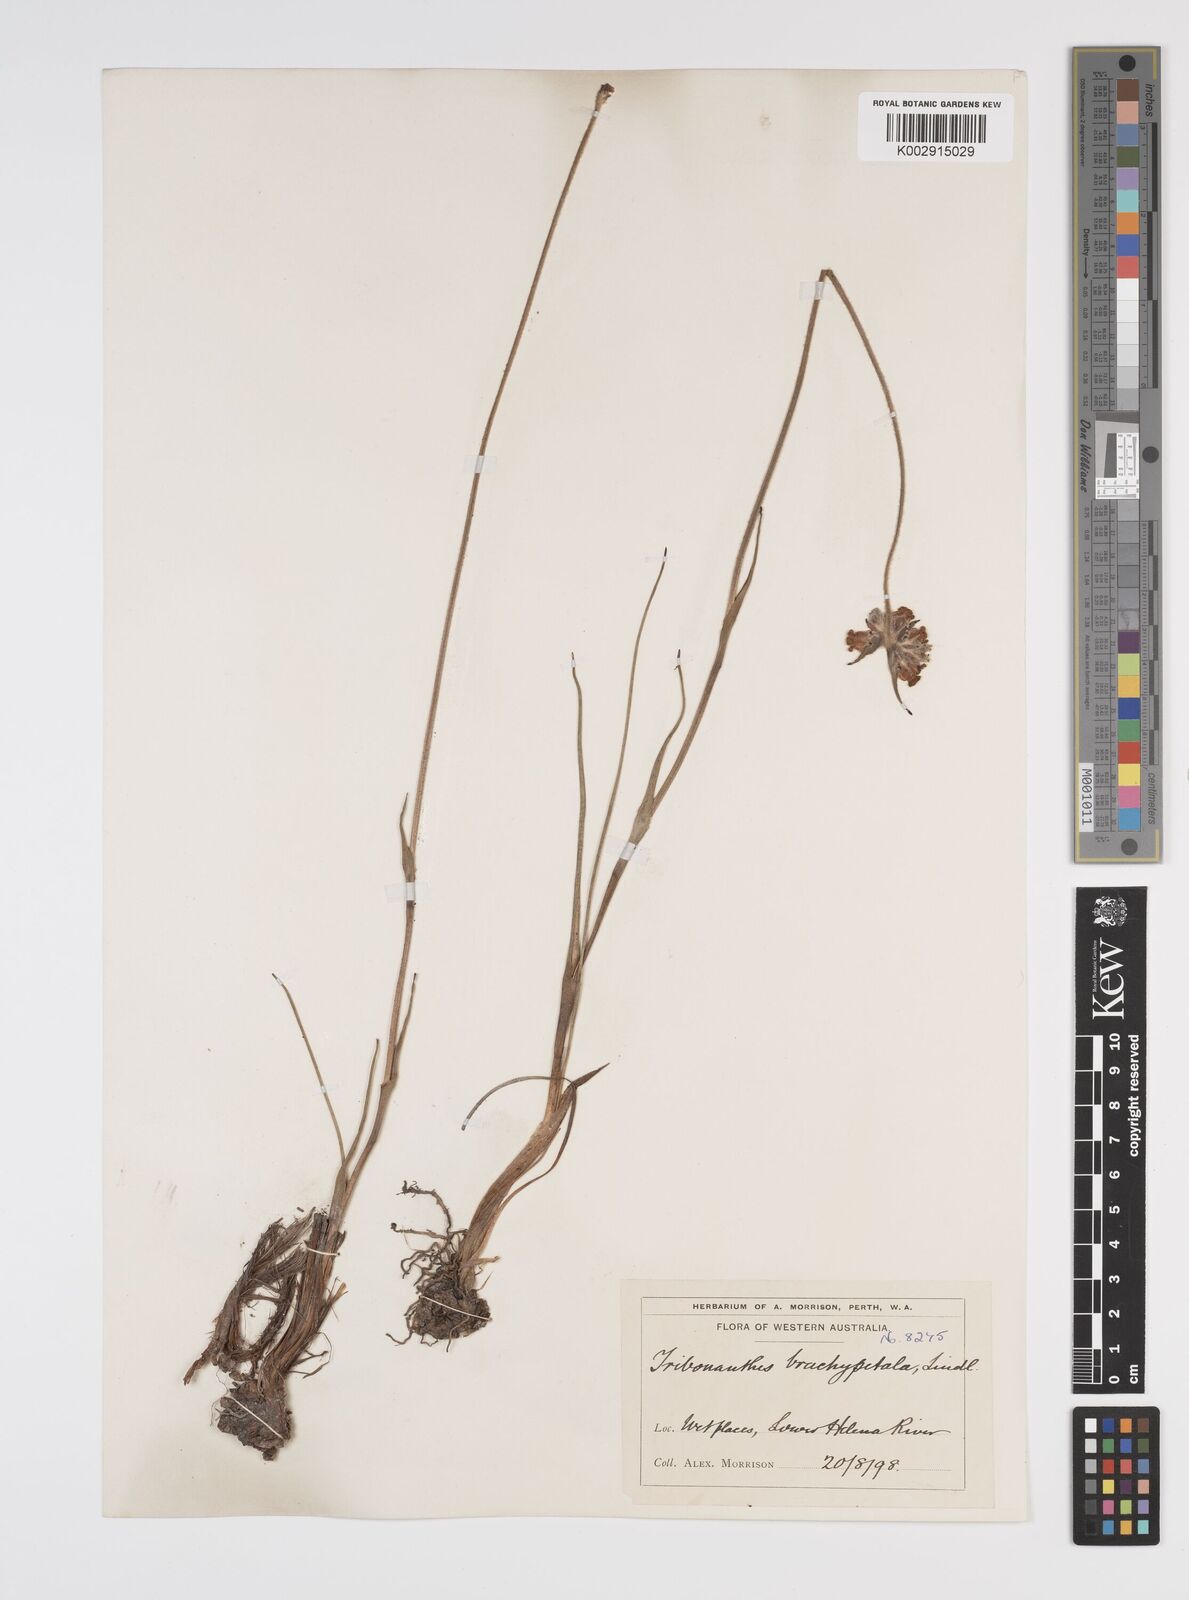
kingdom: Plantae
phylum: Tracheophyta
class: Liliopsida
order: Commelinales
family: Haemodoraceae
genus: Tribonanthes
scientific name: Tribonanthes brachypetala
